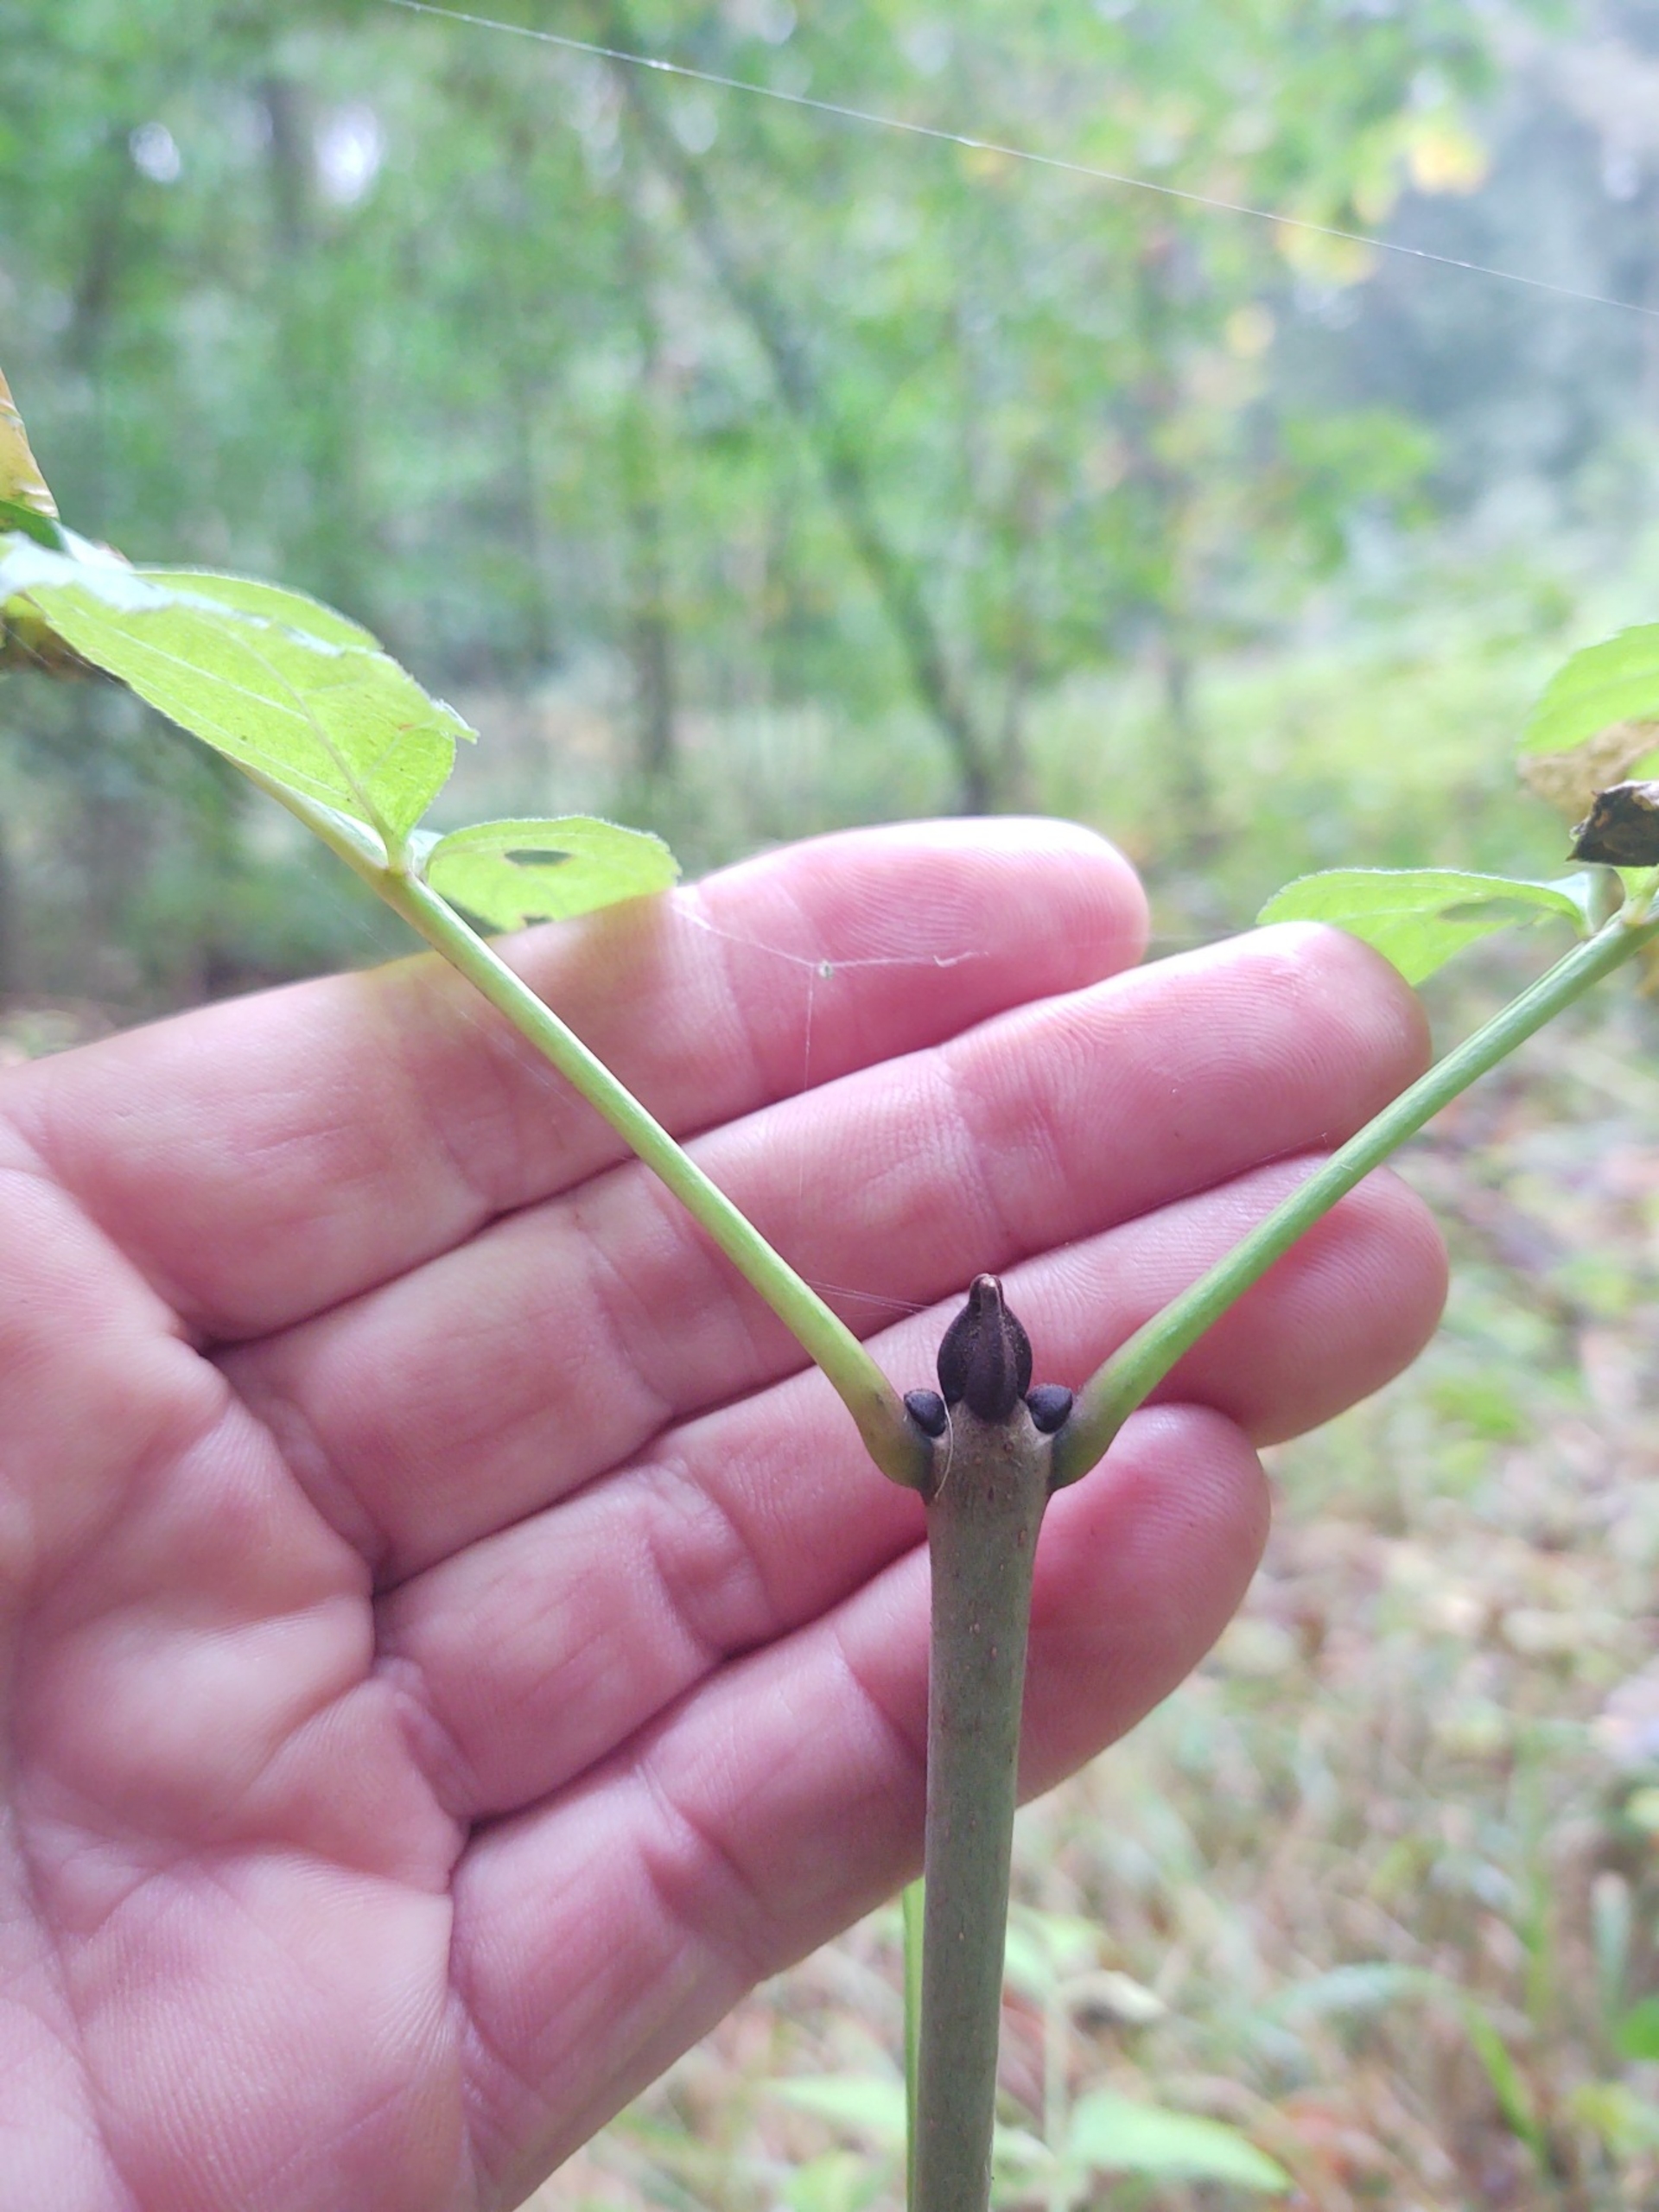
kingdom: Plantae
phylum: Tracheophyta
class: Magnoliopsida
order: Lamiales
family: Oleaceae
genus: Fraxinus
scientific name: Fraxinus excelsior
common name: Ask
